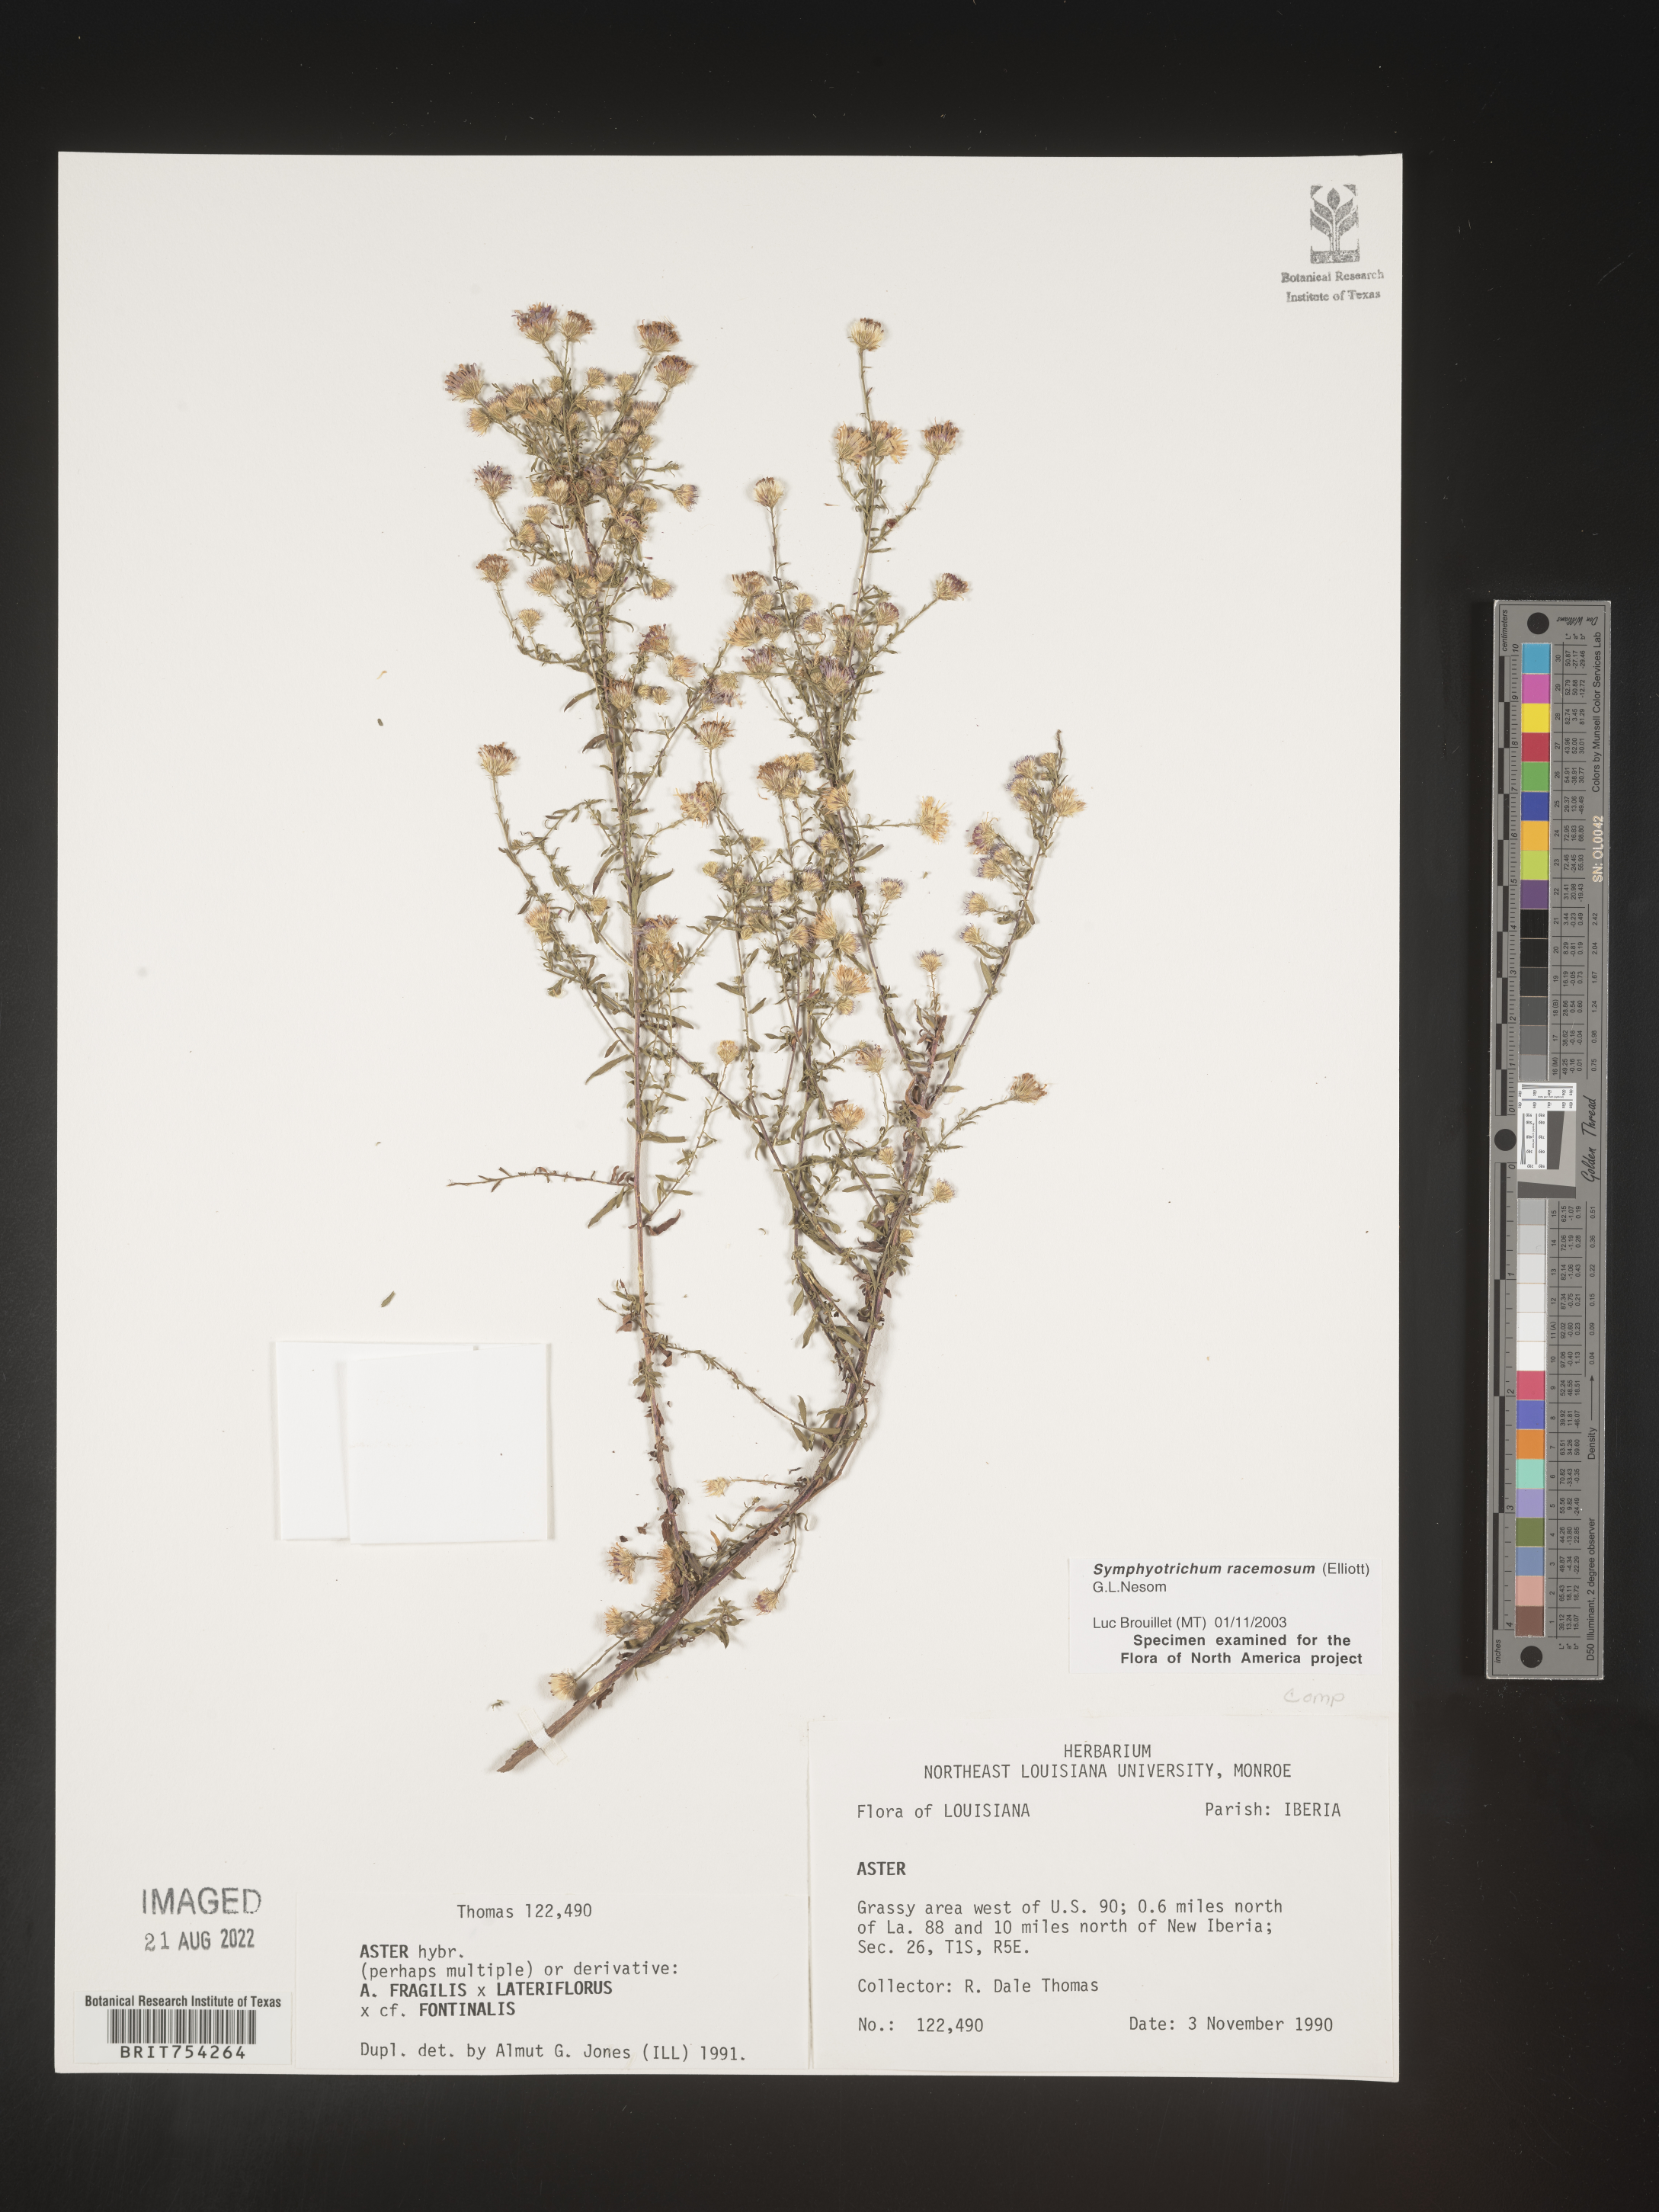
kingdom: Plantae
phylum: Tracheophyta
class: Magnoliopsida
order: Asterales
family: Asteraceae
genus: Symphyotrichum
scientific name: Symphyotrichum racemosum
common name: Small white aster
